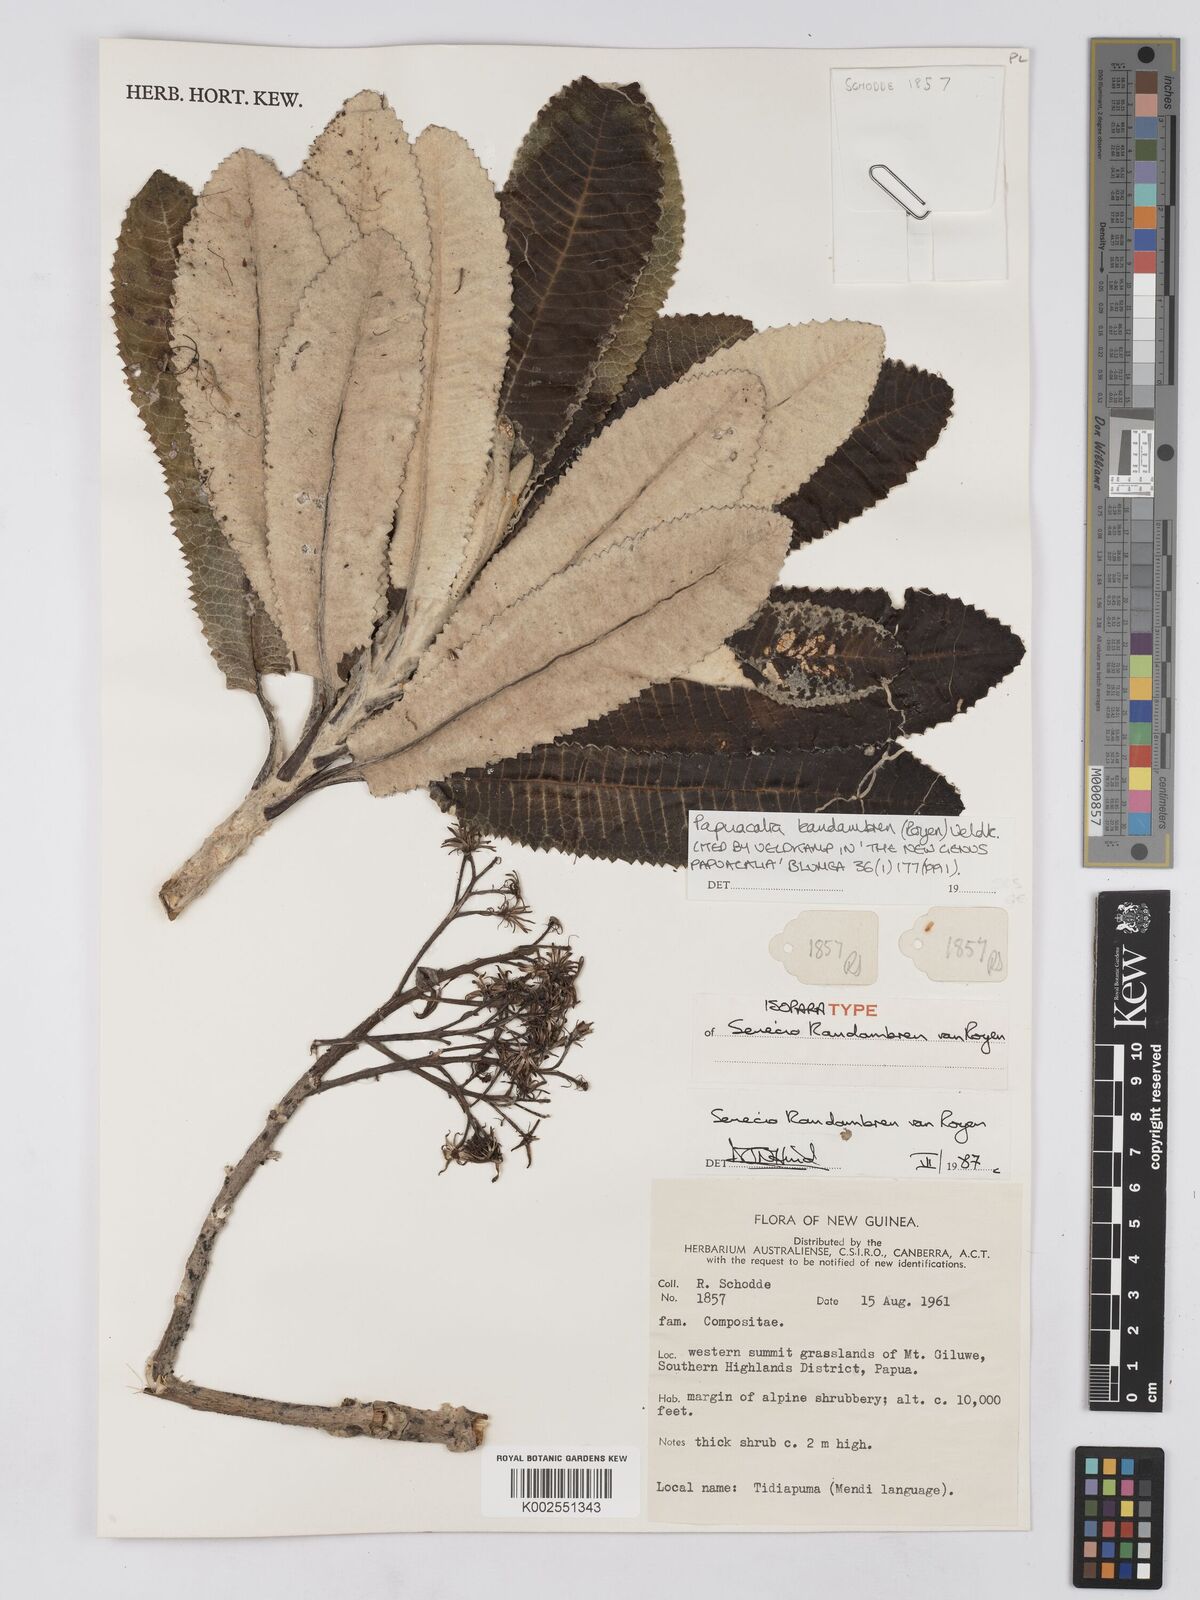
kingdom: Plantae
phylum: Tracheophyta
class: Magnoliopsida
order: Asterales
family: Asteraceae
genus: Papuacalia
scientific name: Papuacalia kandambren
